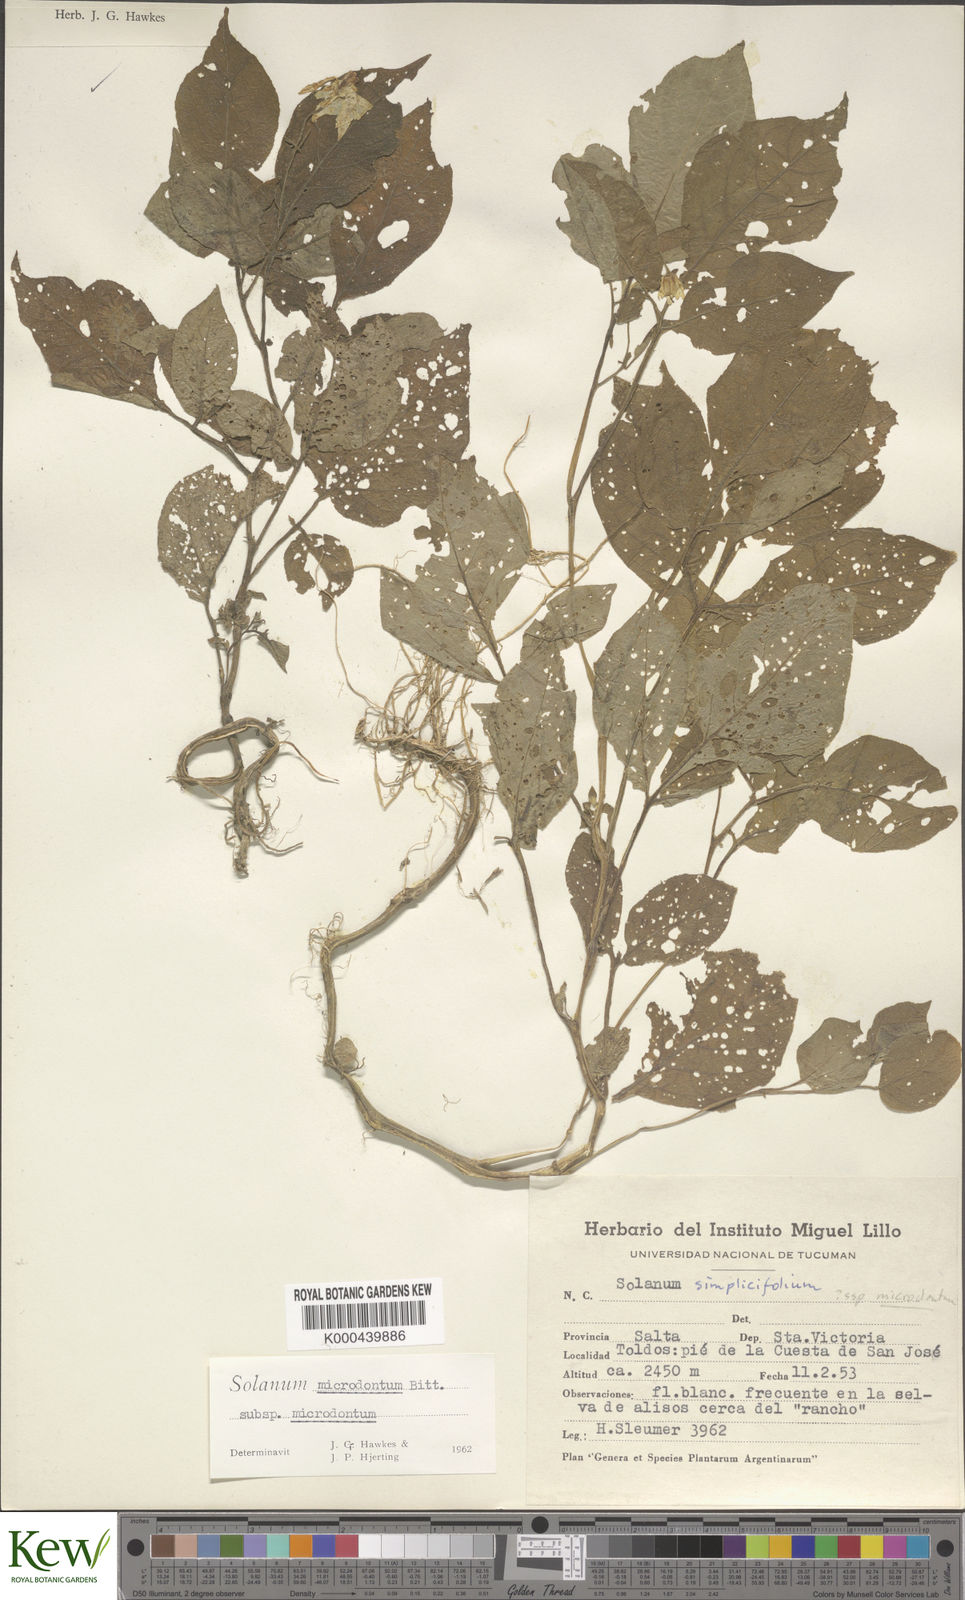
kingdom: Plantae
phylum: Tracheophyta
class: Magnoliopsida
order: Solanales
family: Solanaceae
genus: Solanum
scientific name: Solanum microdontum
